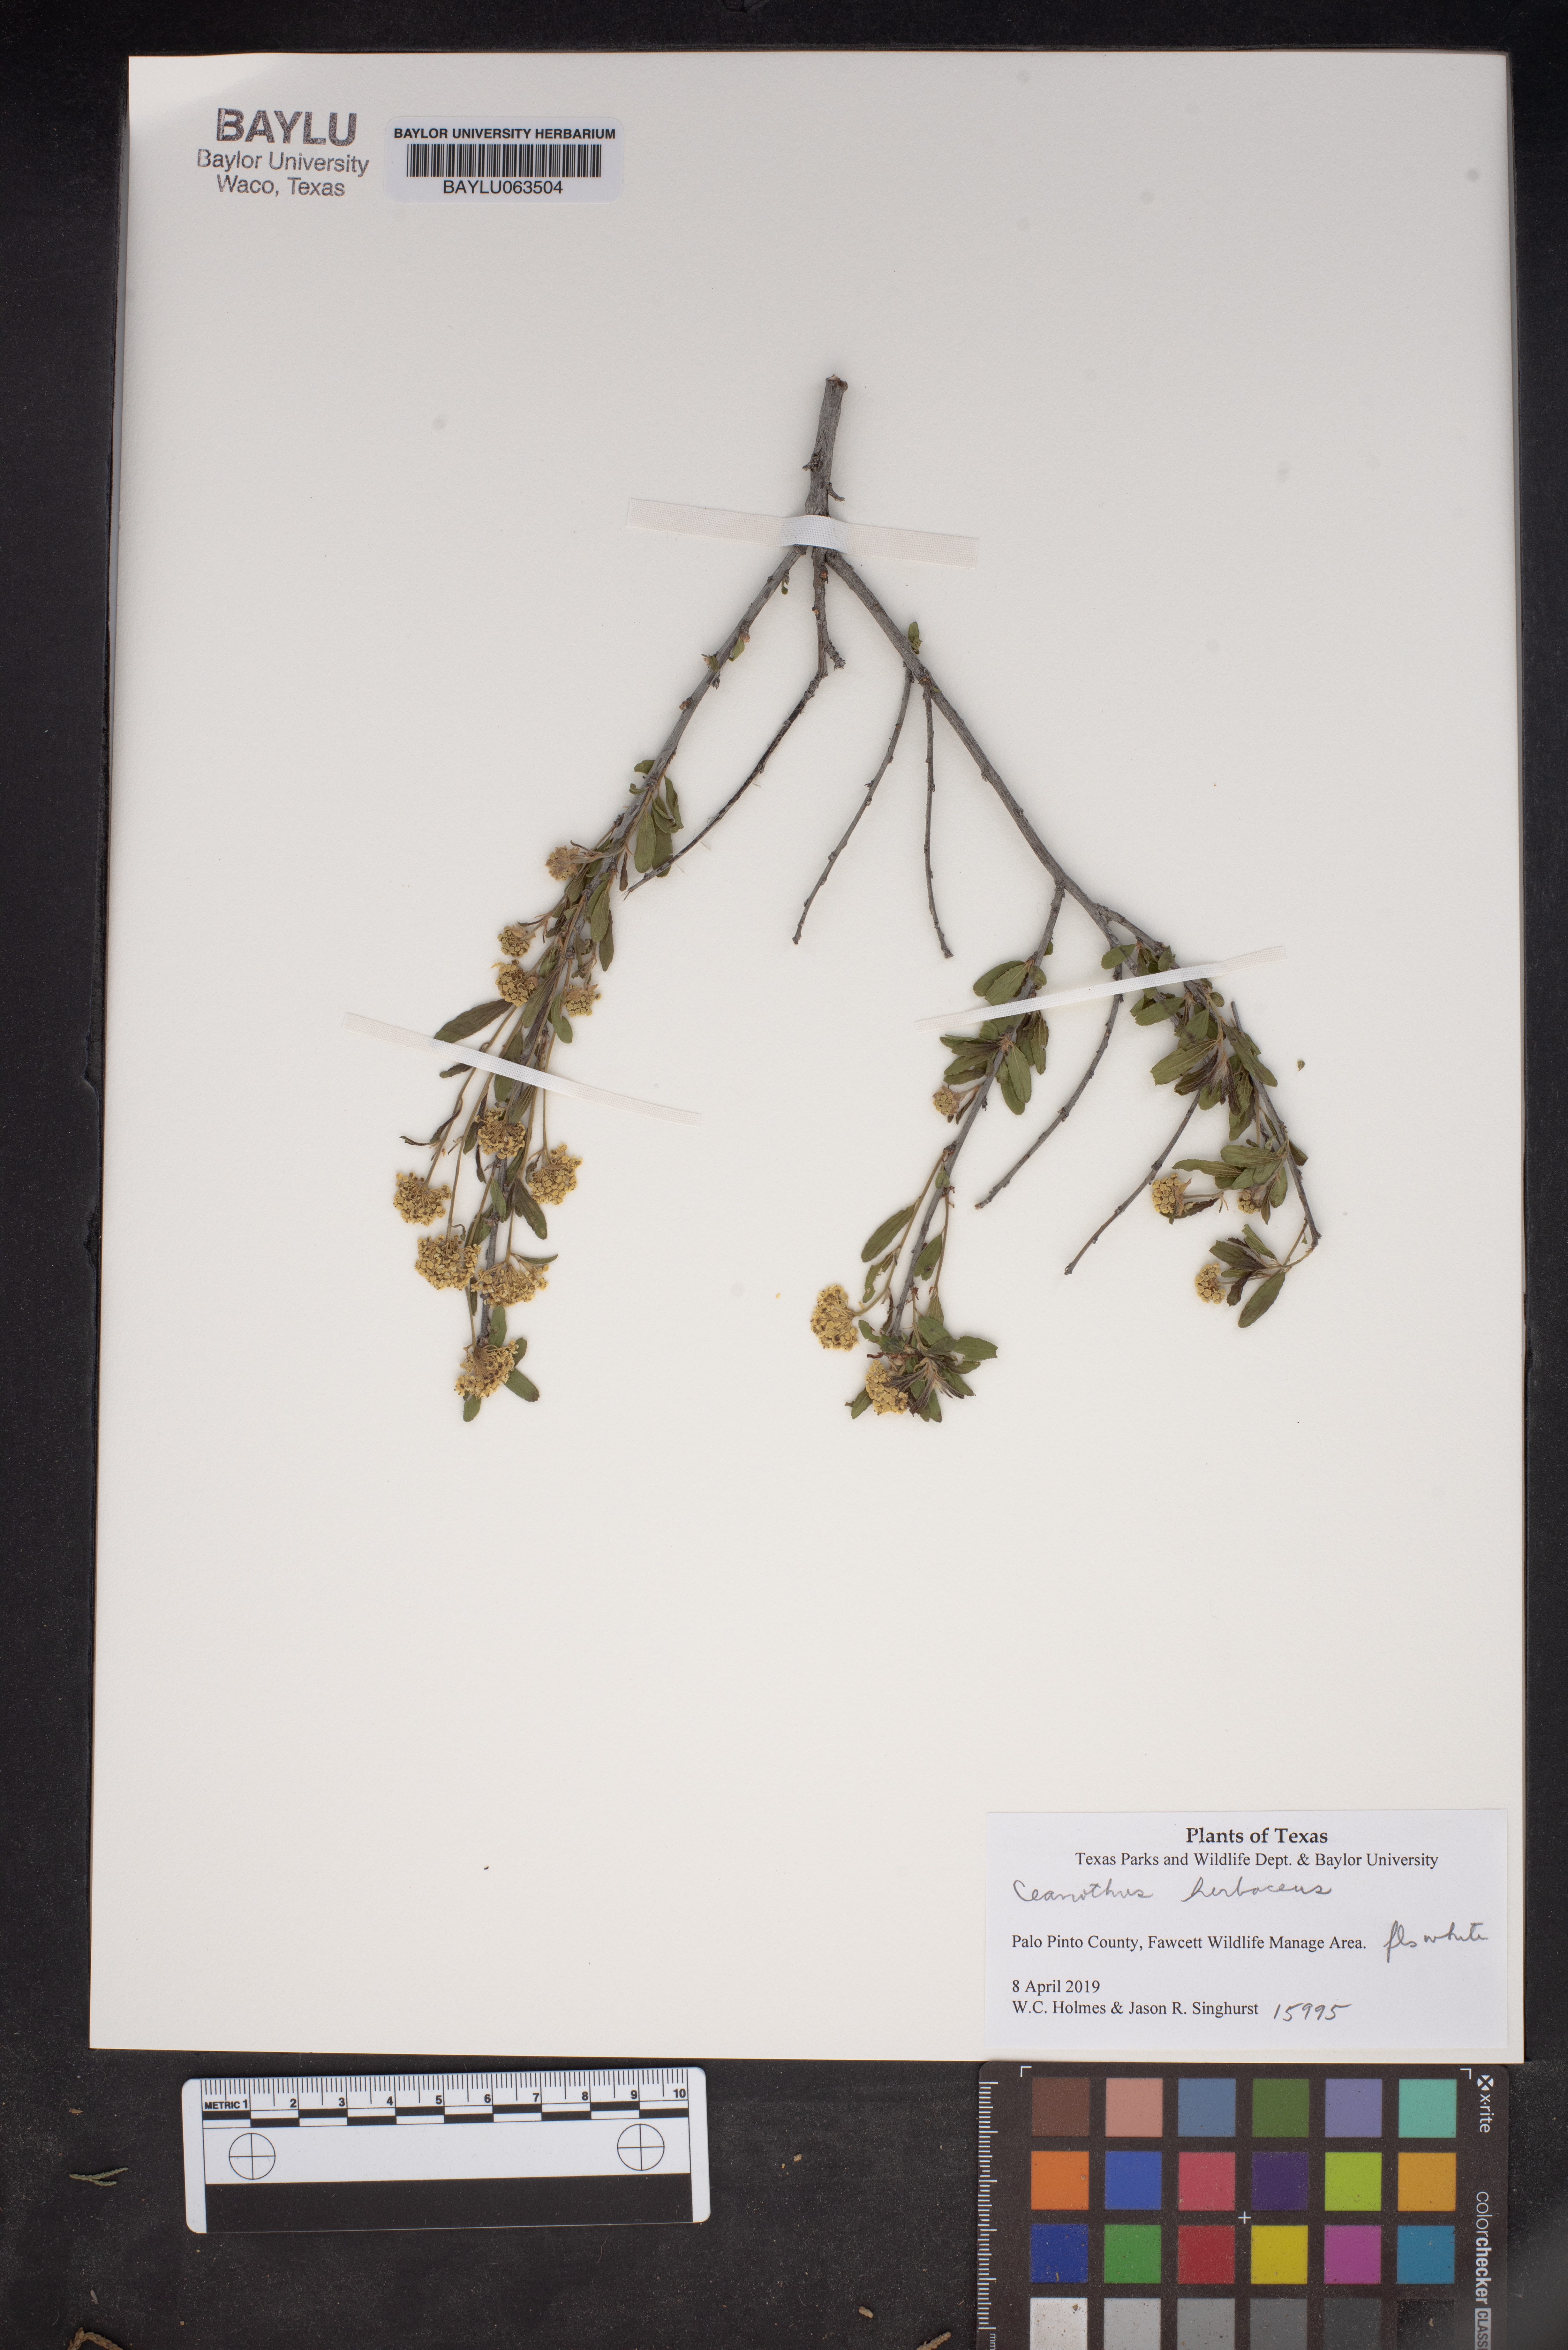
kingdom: Plantae
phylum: Tracheophyta
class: Magnoliopsida
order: Rosales
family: Rhamnaceae
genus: Ceanothus
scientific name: Ceanothus herbaceus
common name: Inland ceanothus
